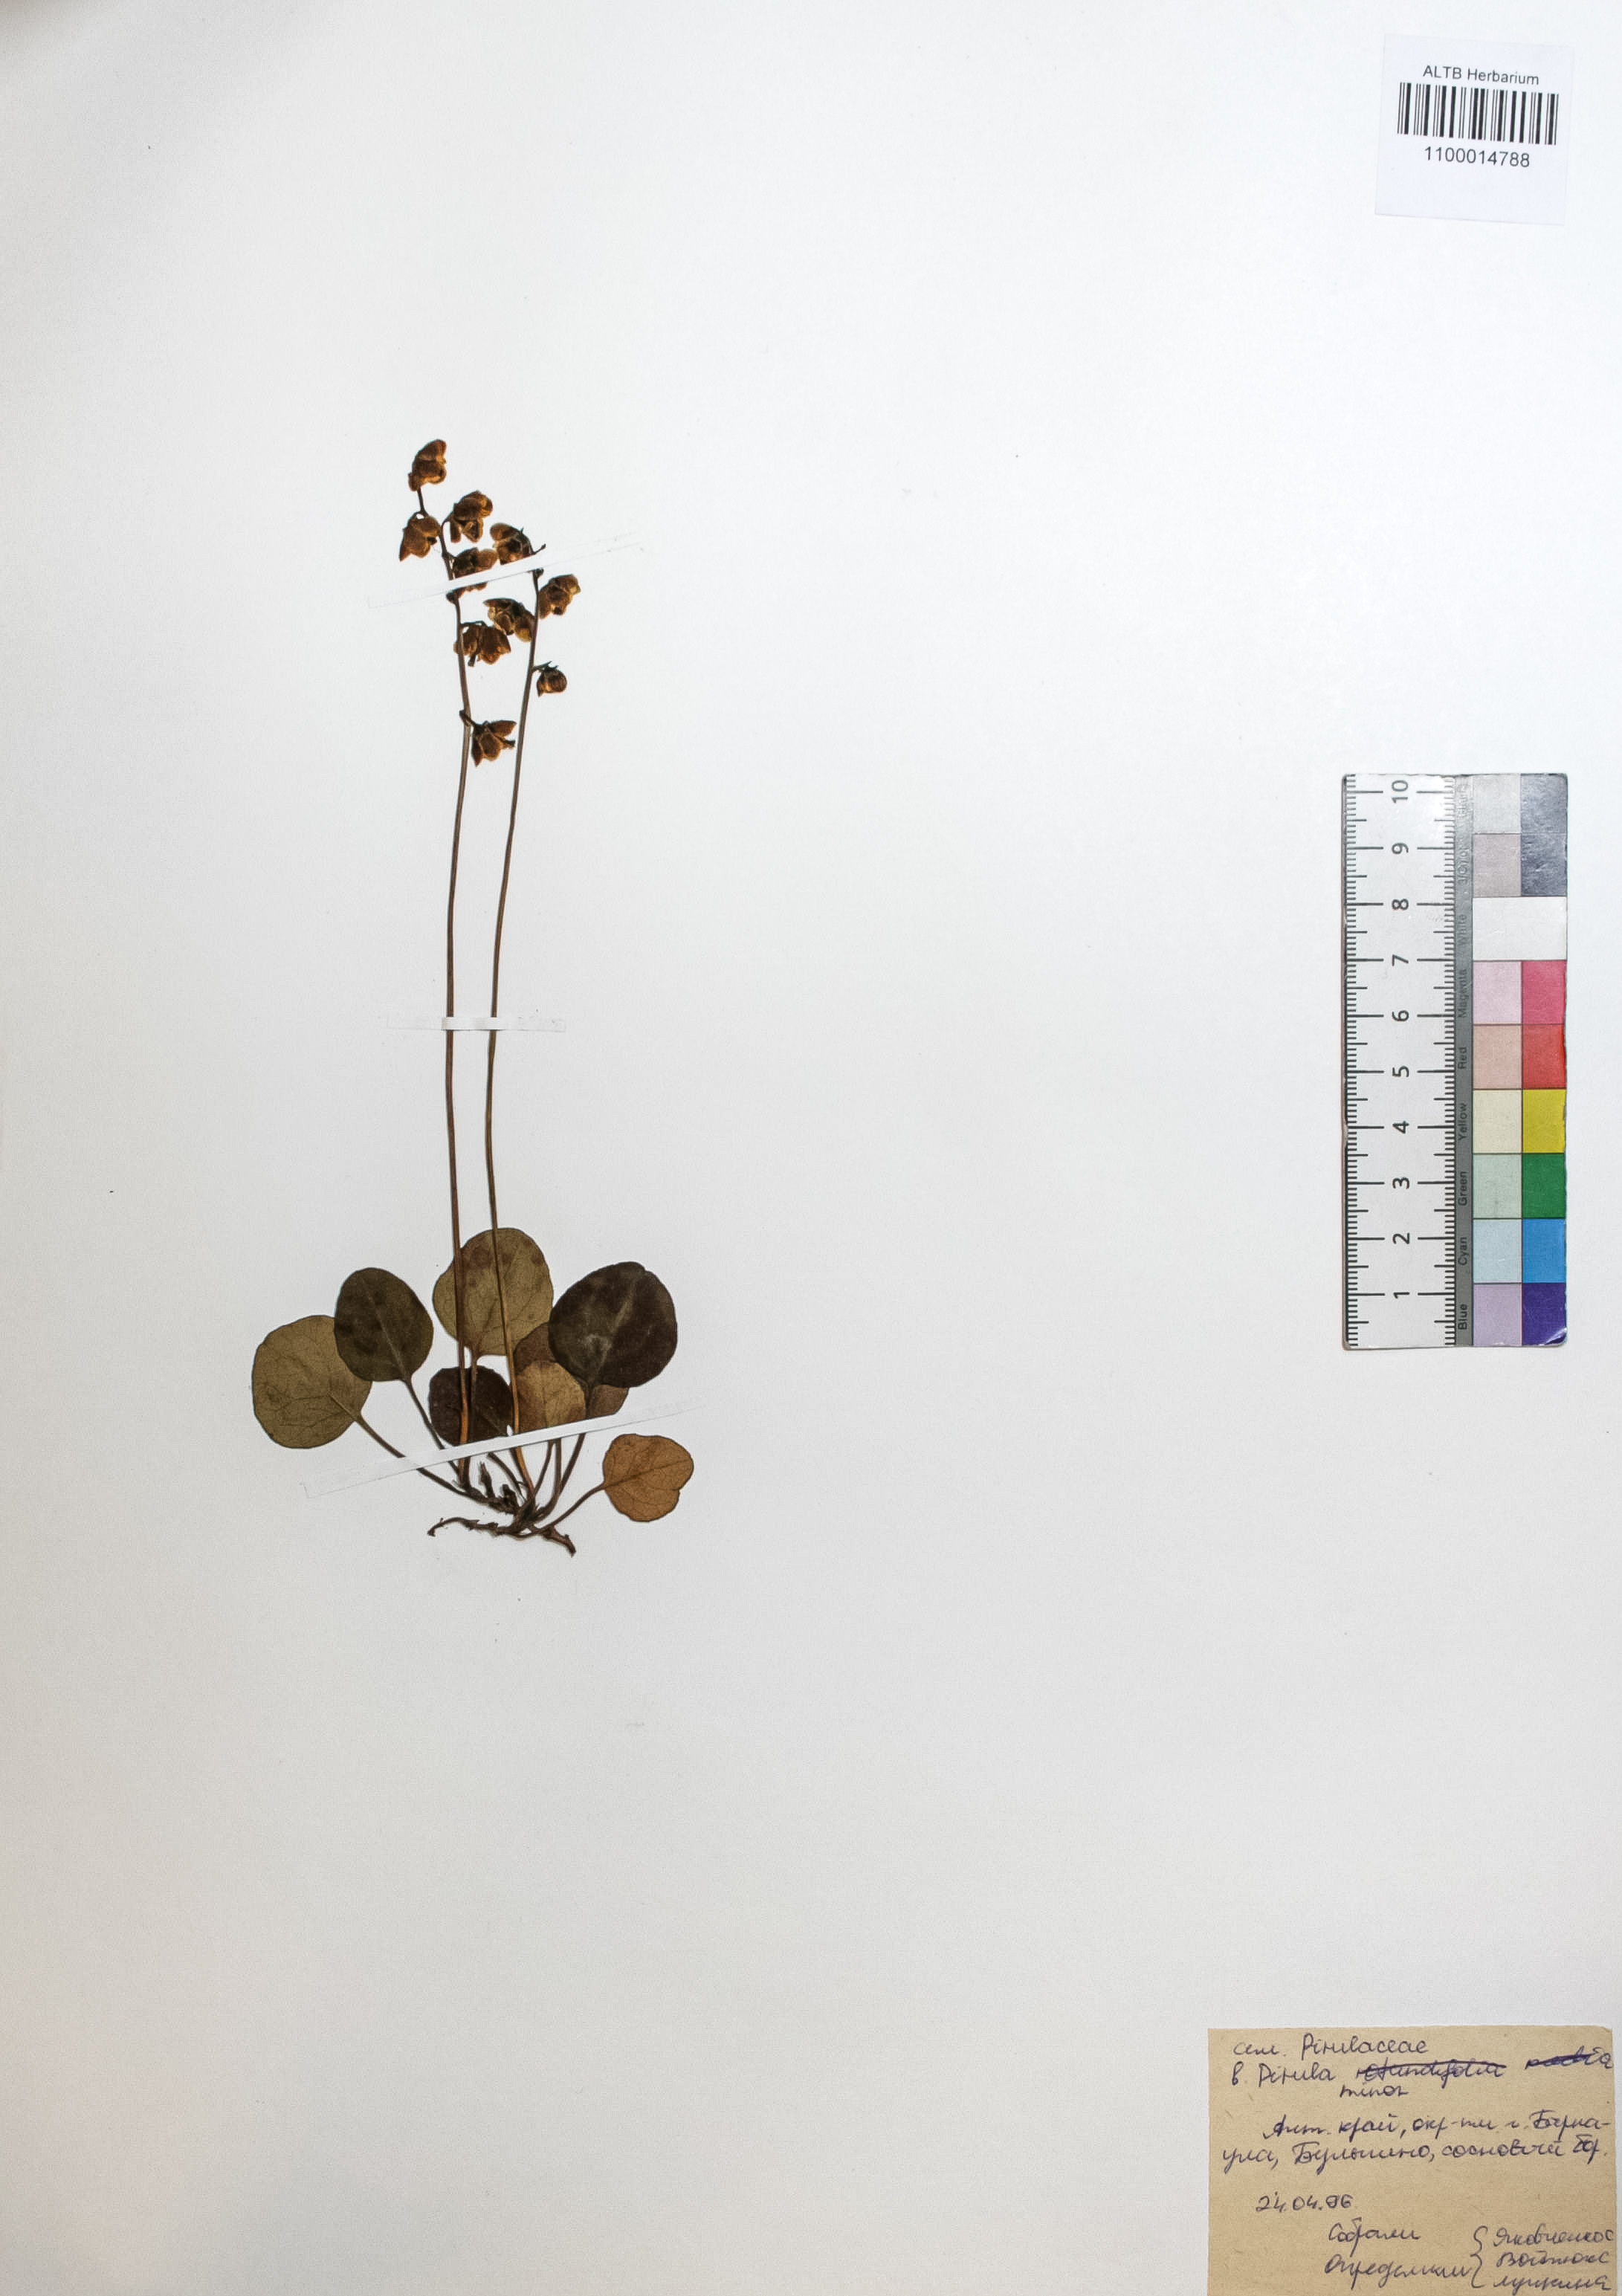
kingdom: Plantae
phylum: Tracheophyta
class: Magnoliopsida
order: Ericales
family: Ericaceae
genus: Pyrola
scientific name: Pyrola minor
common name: Common wintergreen
